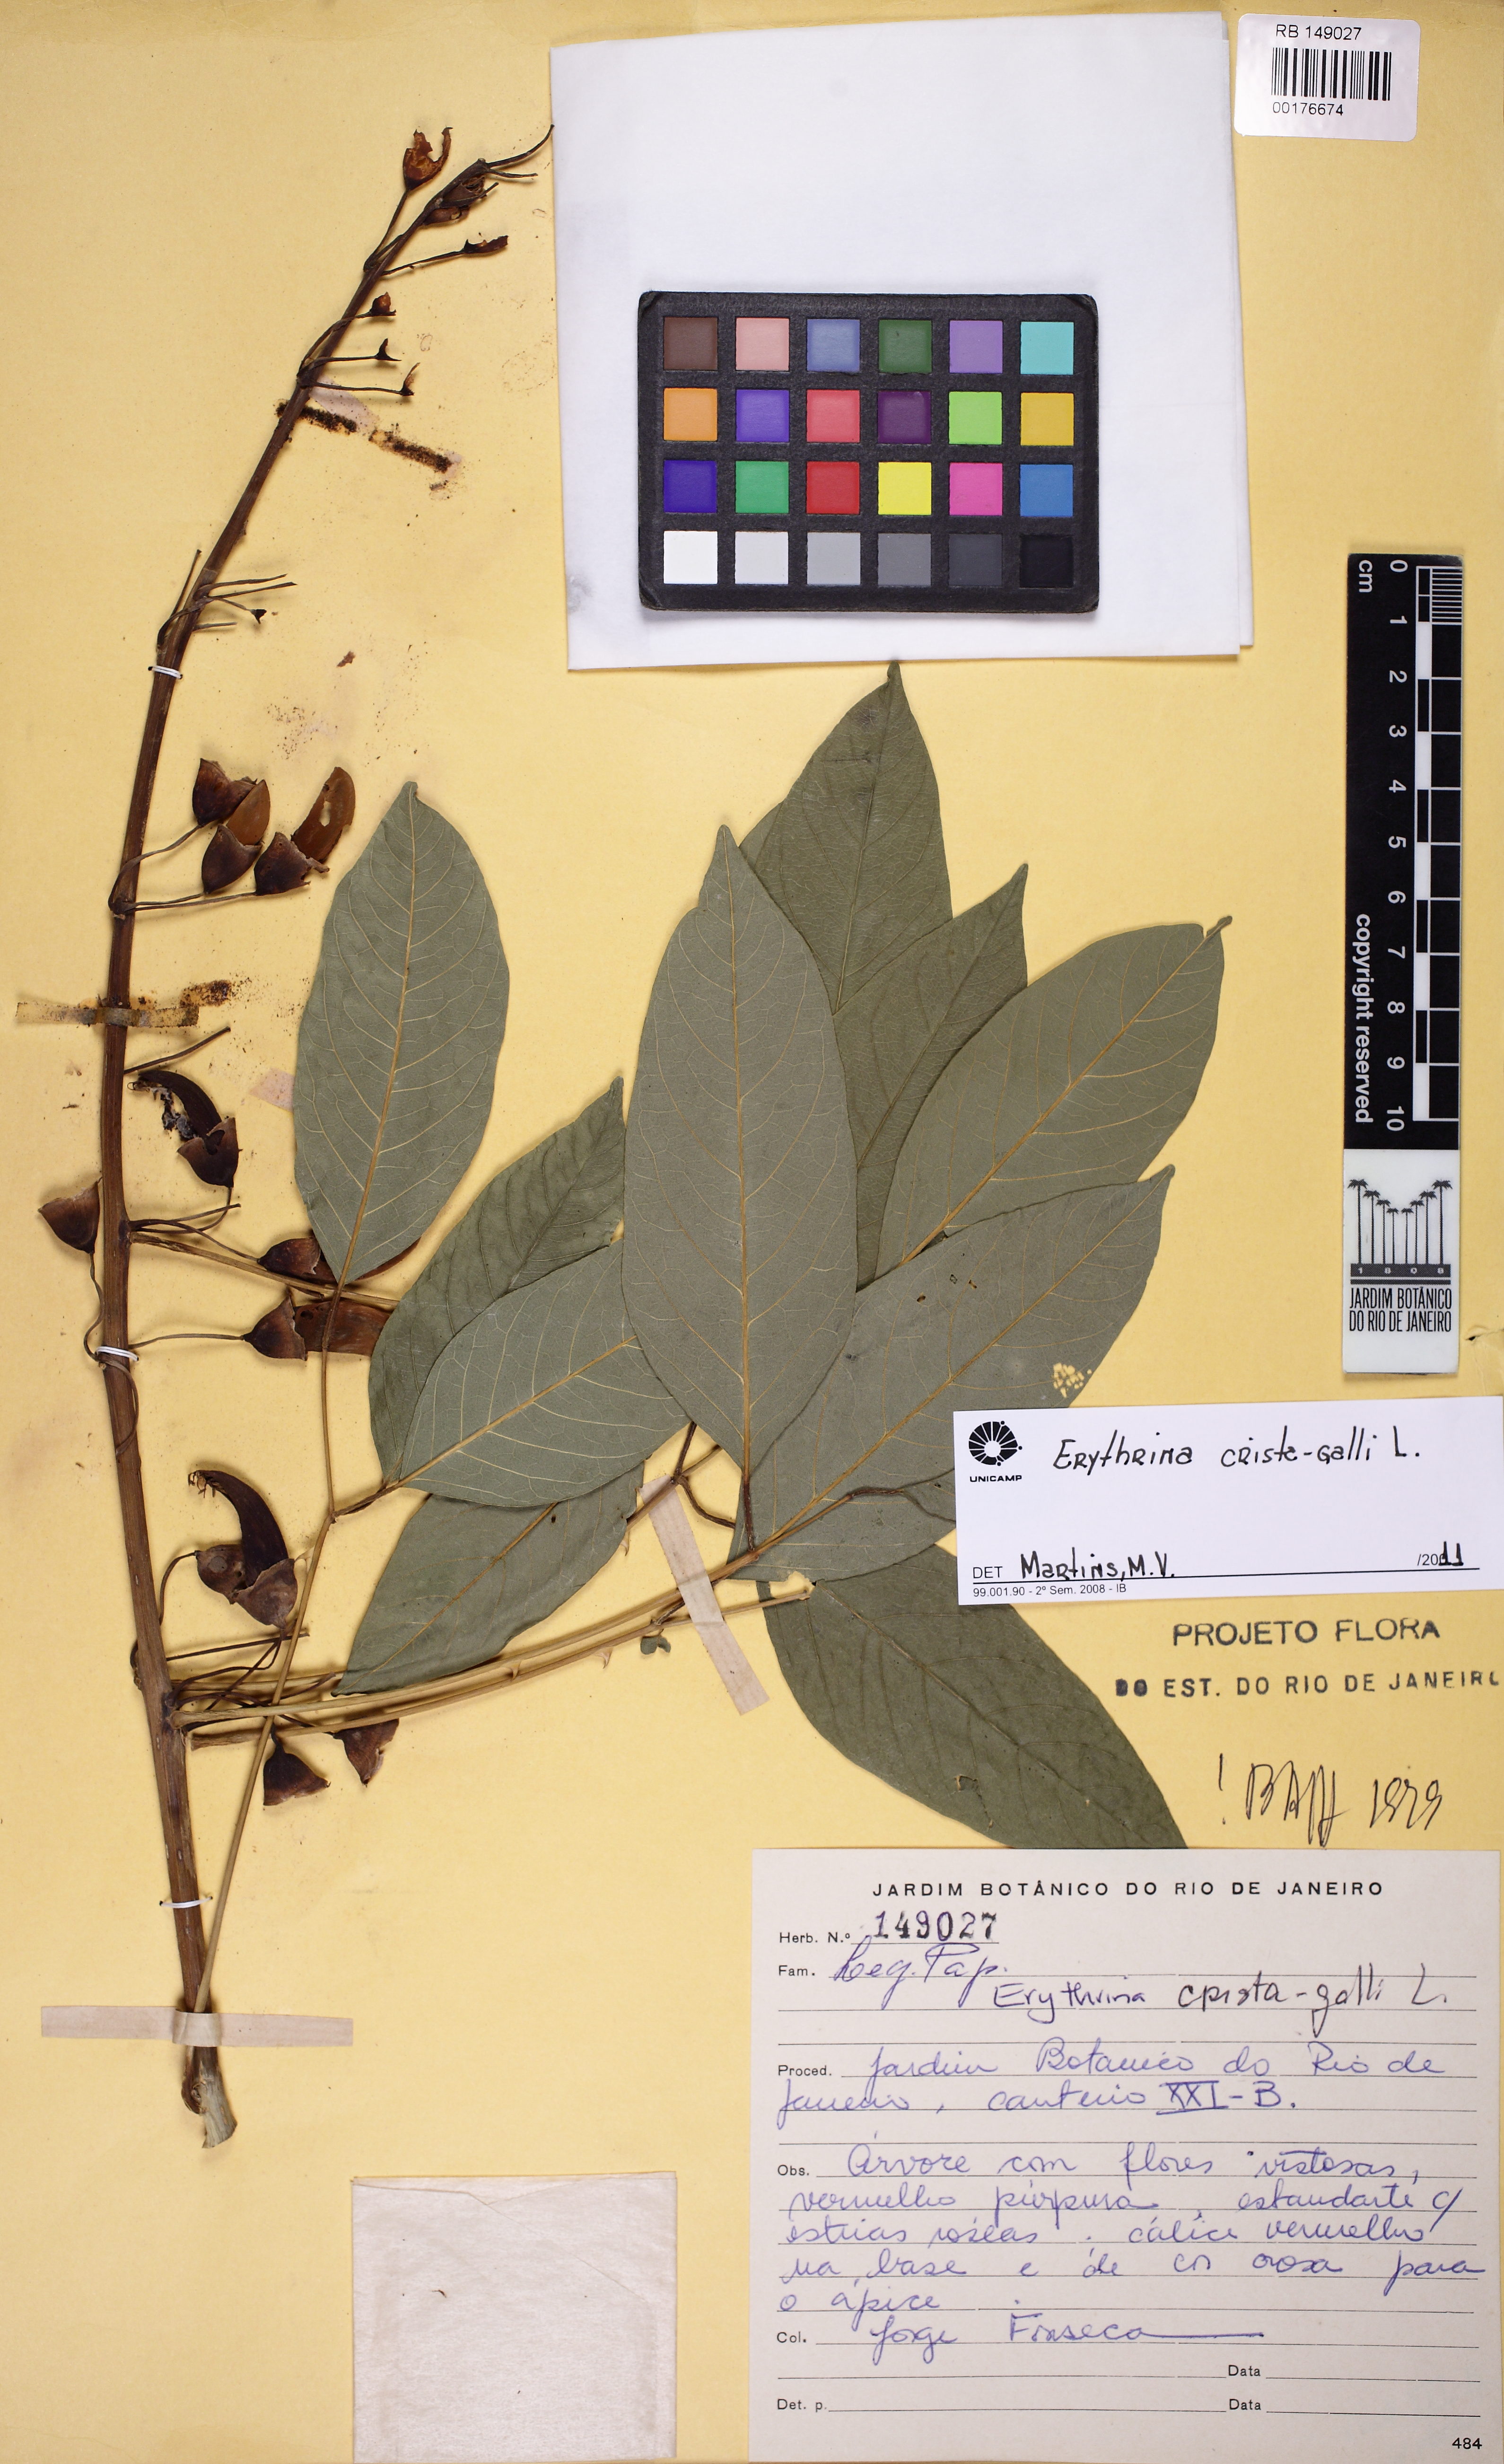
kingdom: Plantae
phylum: Tracheophyta
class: Magnoliopsida
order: Fabales
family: Fabaceae
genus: Erythrina
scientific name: Erythrina crista-galli
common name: Cockspur coral tree
